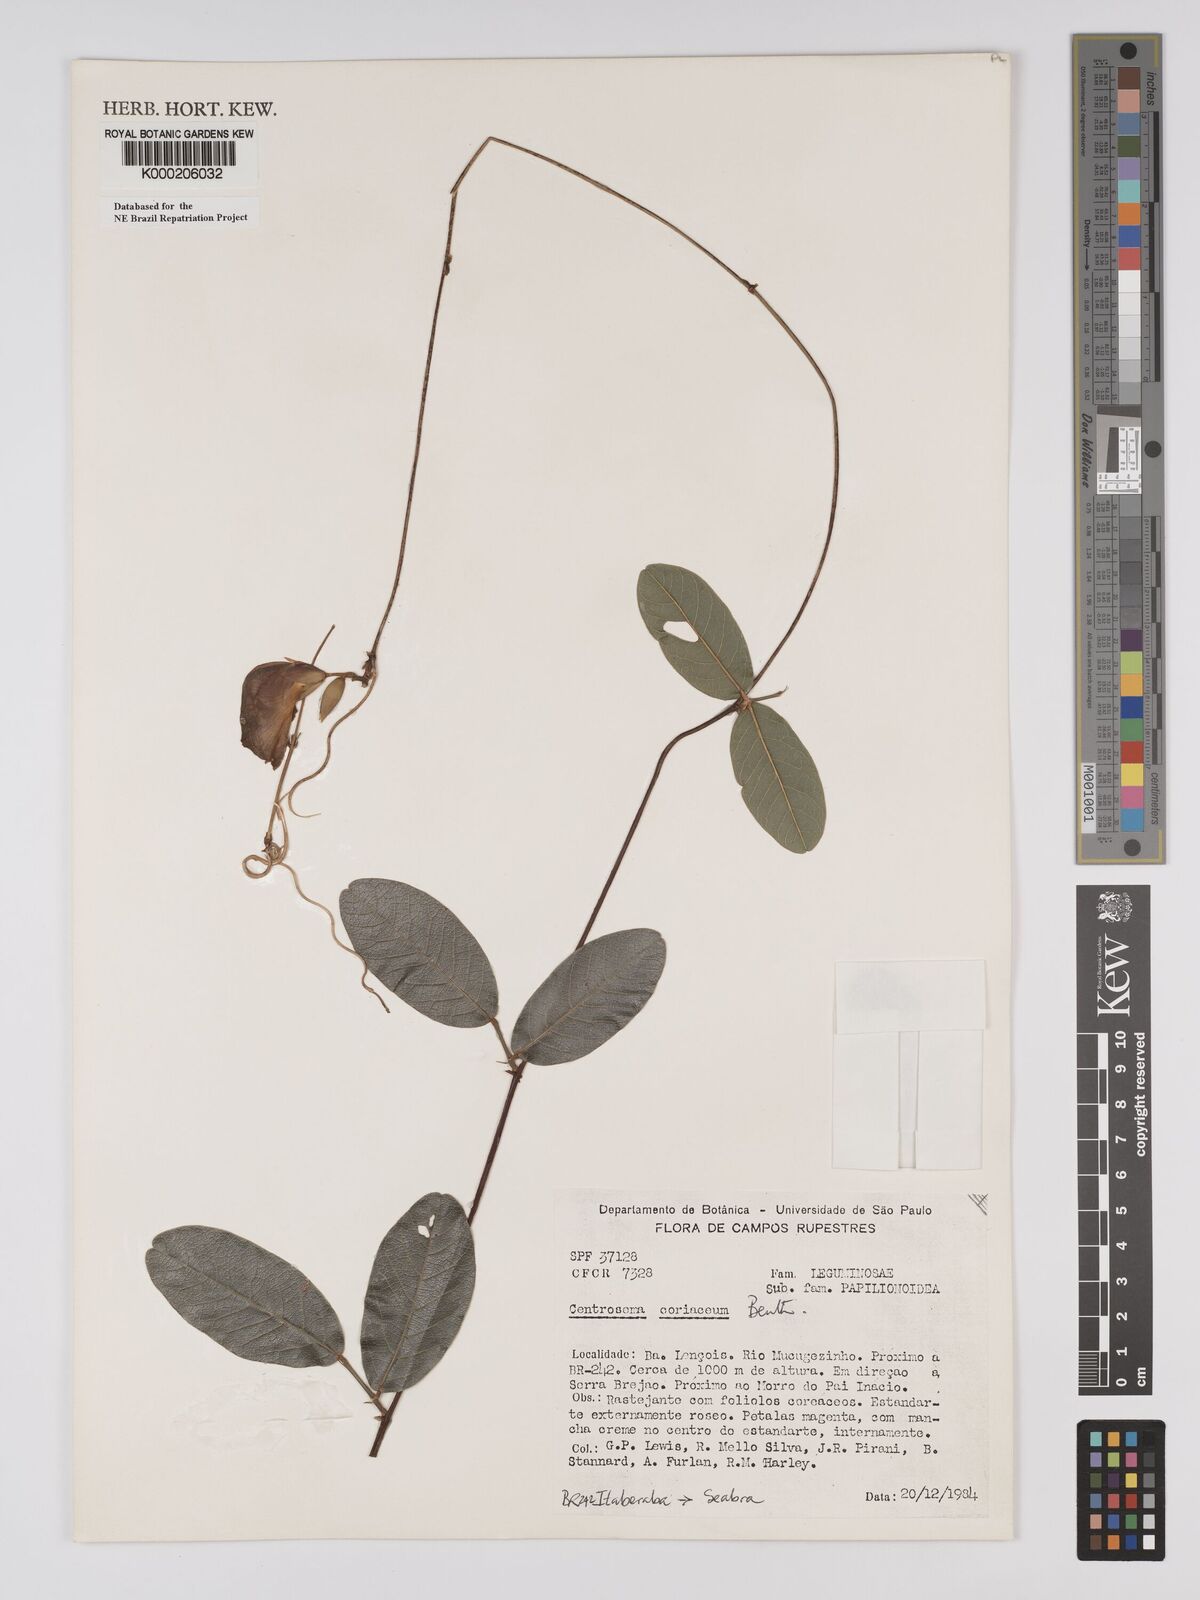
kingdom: Plantae
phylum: Tracheophyta
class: Magnoliopsida
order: Fabales
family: Fabaceae
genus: Centrosema
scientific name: Centrosema coriaceum
